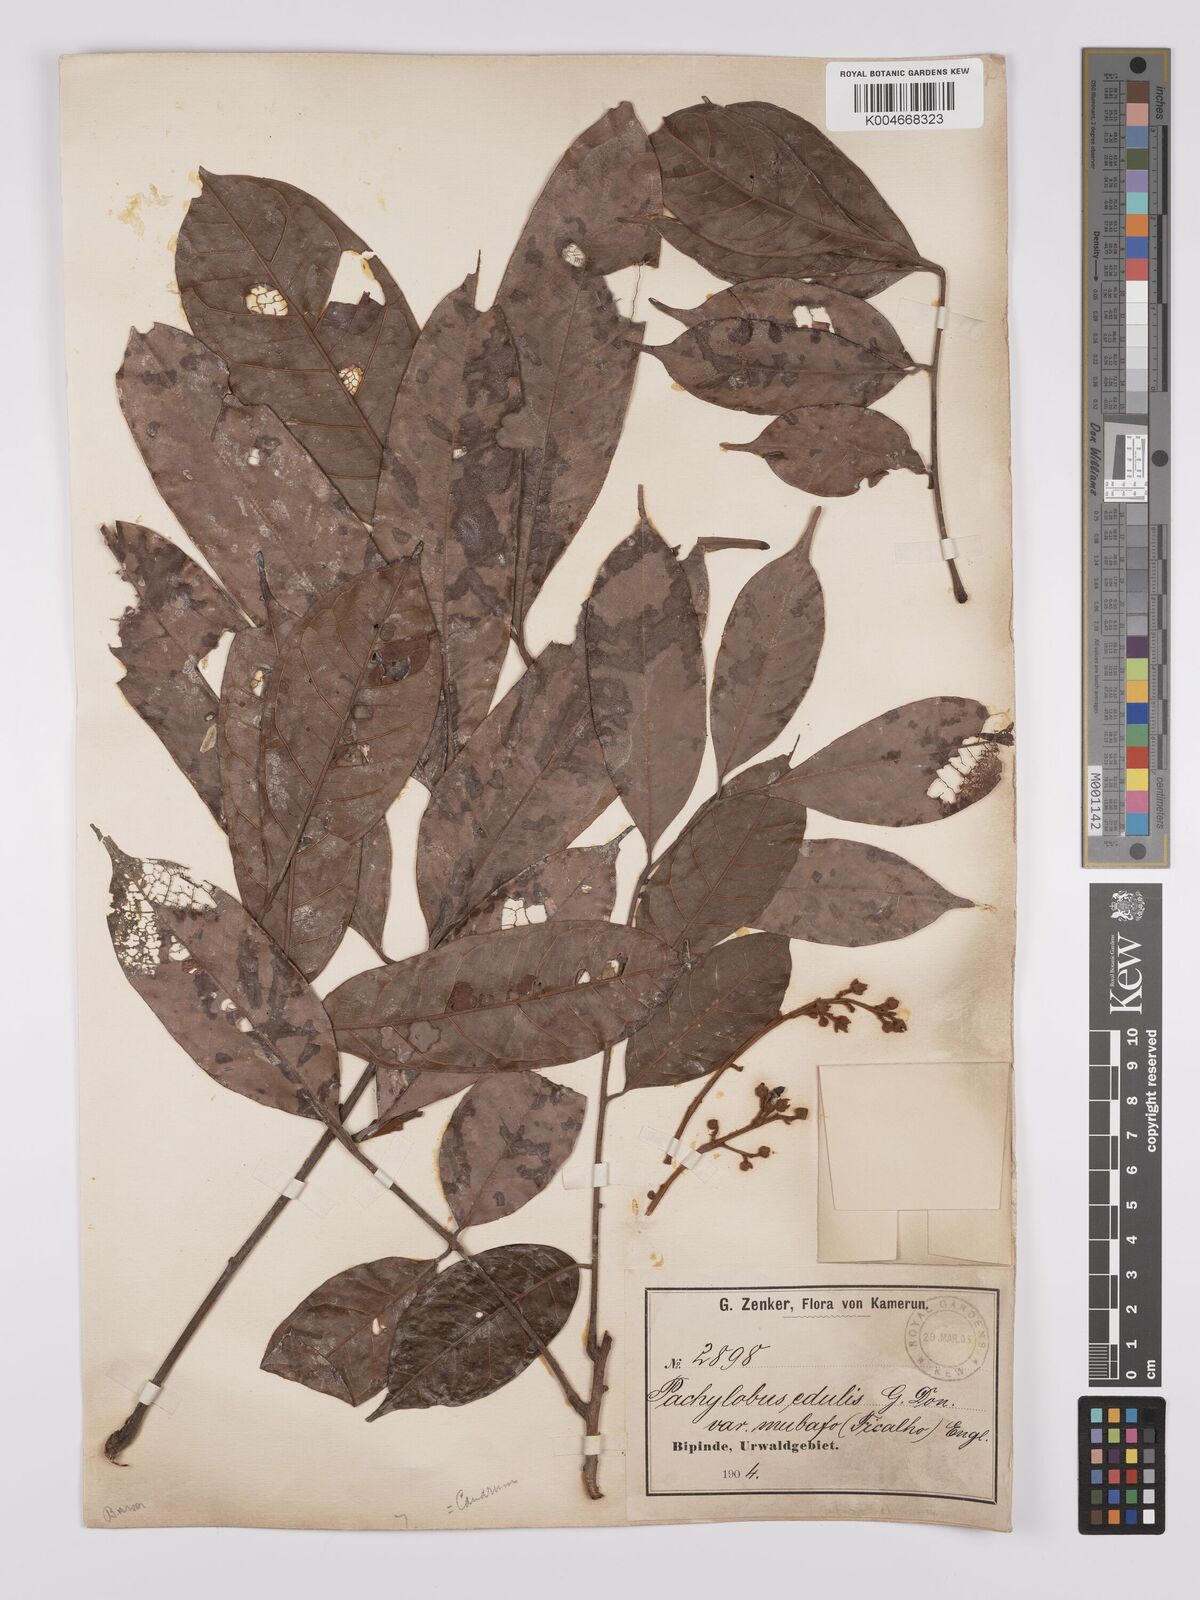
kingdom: Plantae
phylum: Tracheophyta
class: Magnoliopsida
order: Sapindales
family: Burseraceae
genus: Pachylobus
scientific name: Pachylobus edulis
